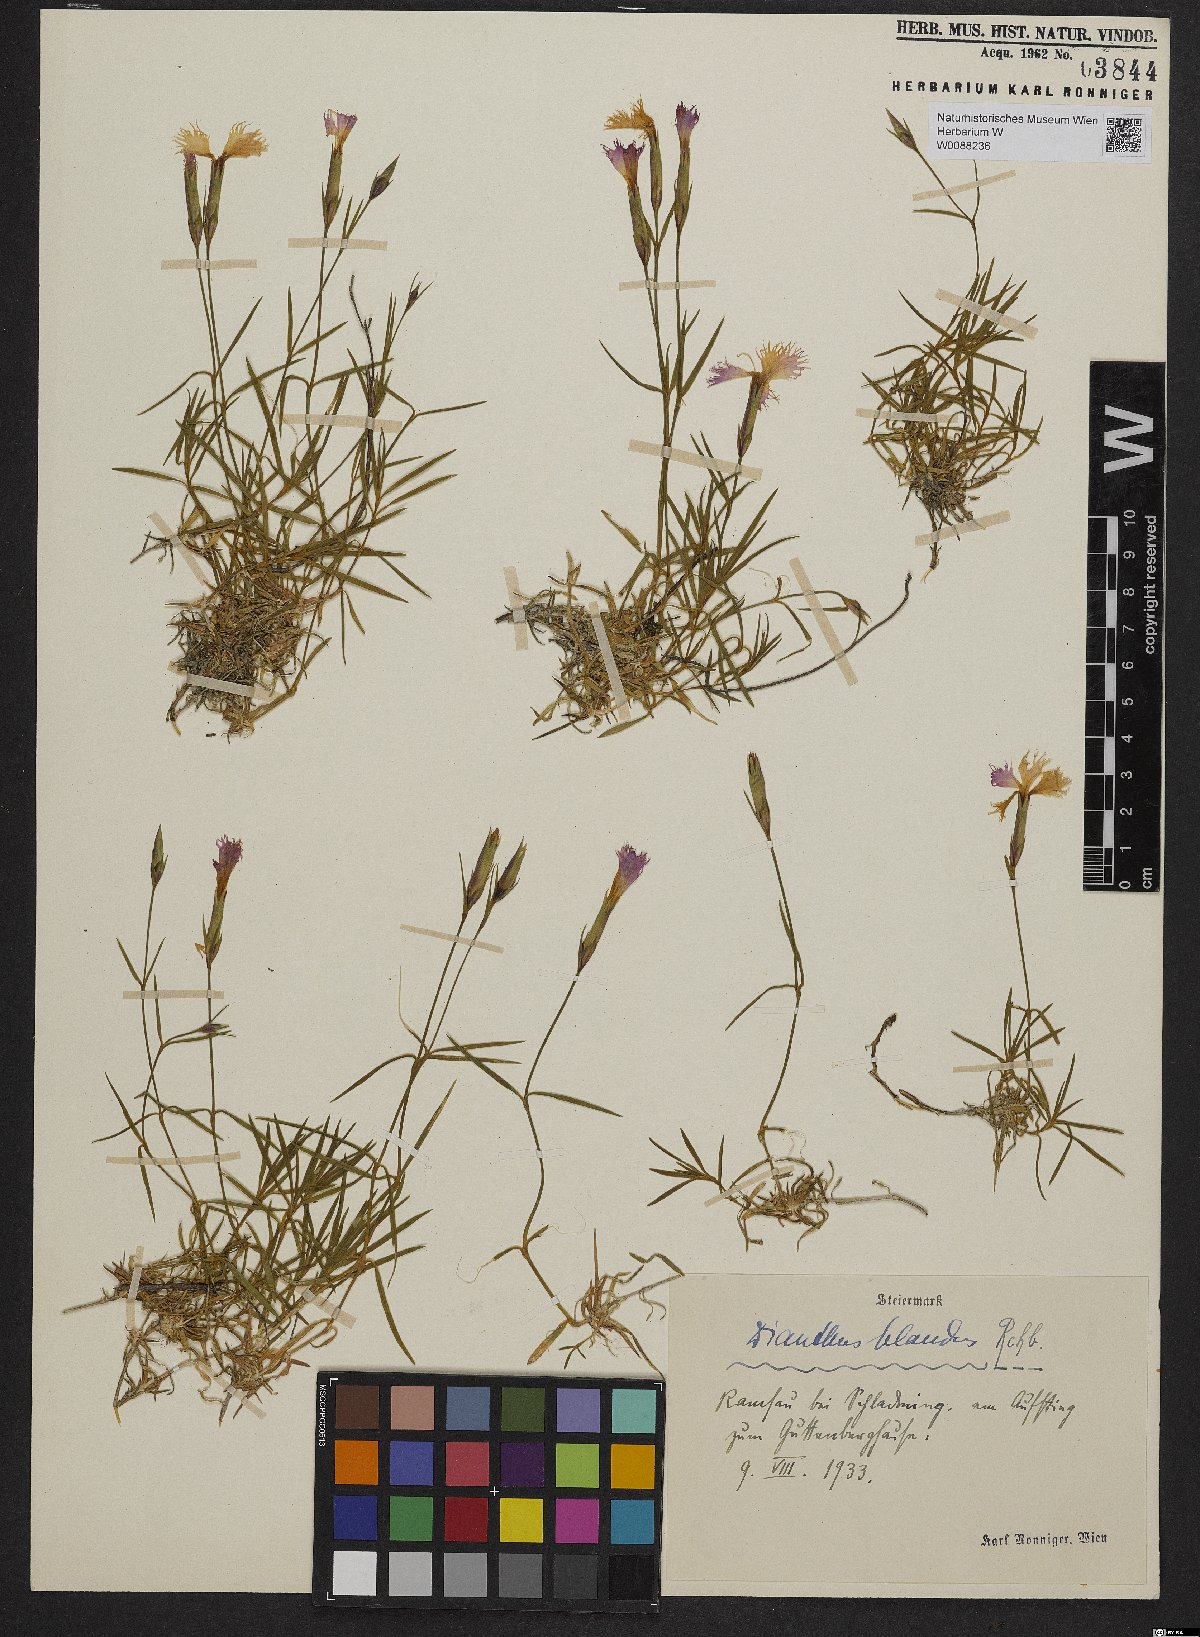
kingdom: Plantae
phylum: Tracheophyta
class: Magnoliopsida
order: Caryophyllales
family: Caryophyllaceae
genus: Dianthus
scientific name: Dianthus plumarius
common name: Pink
